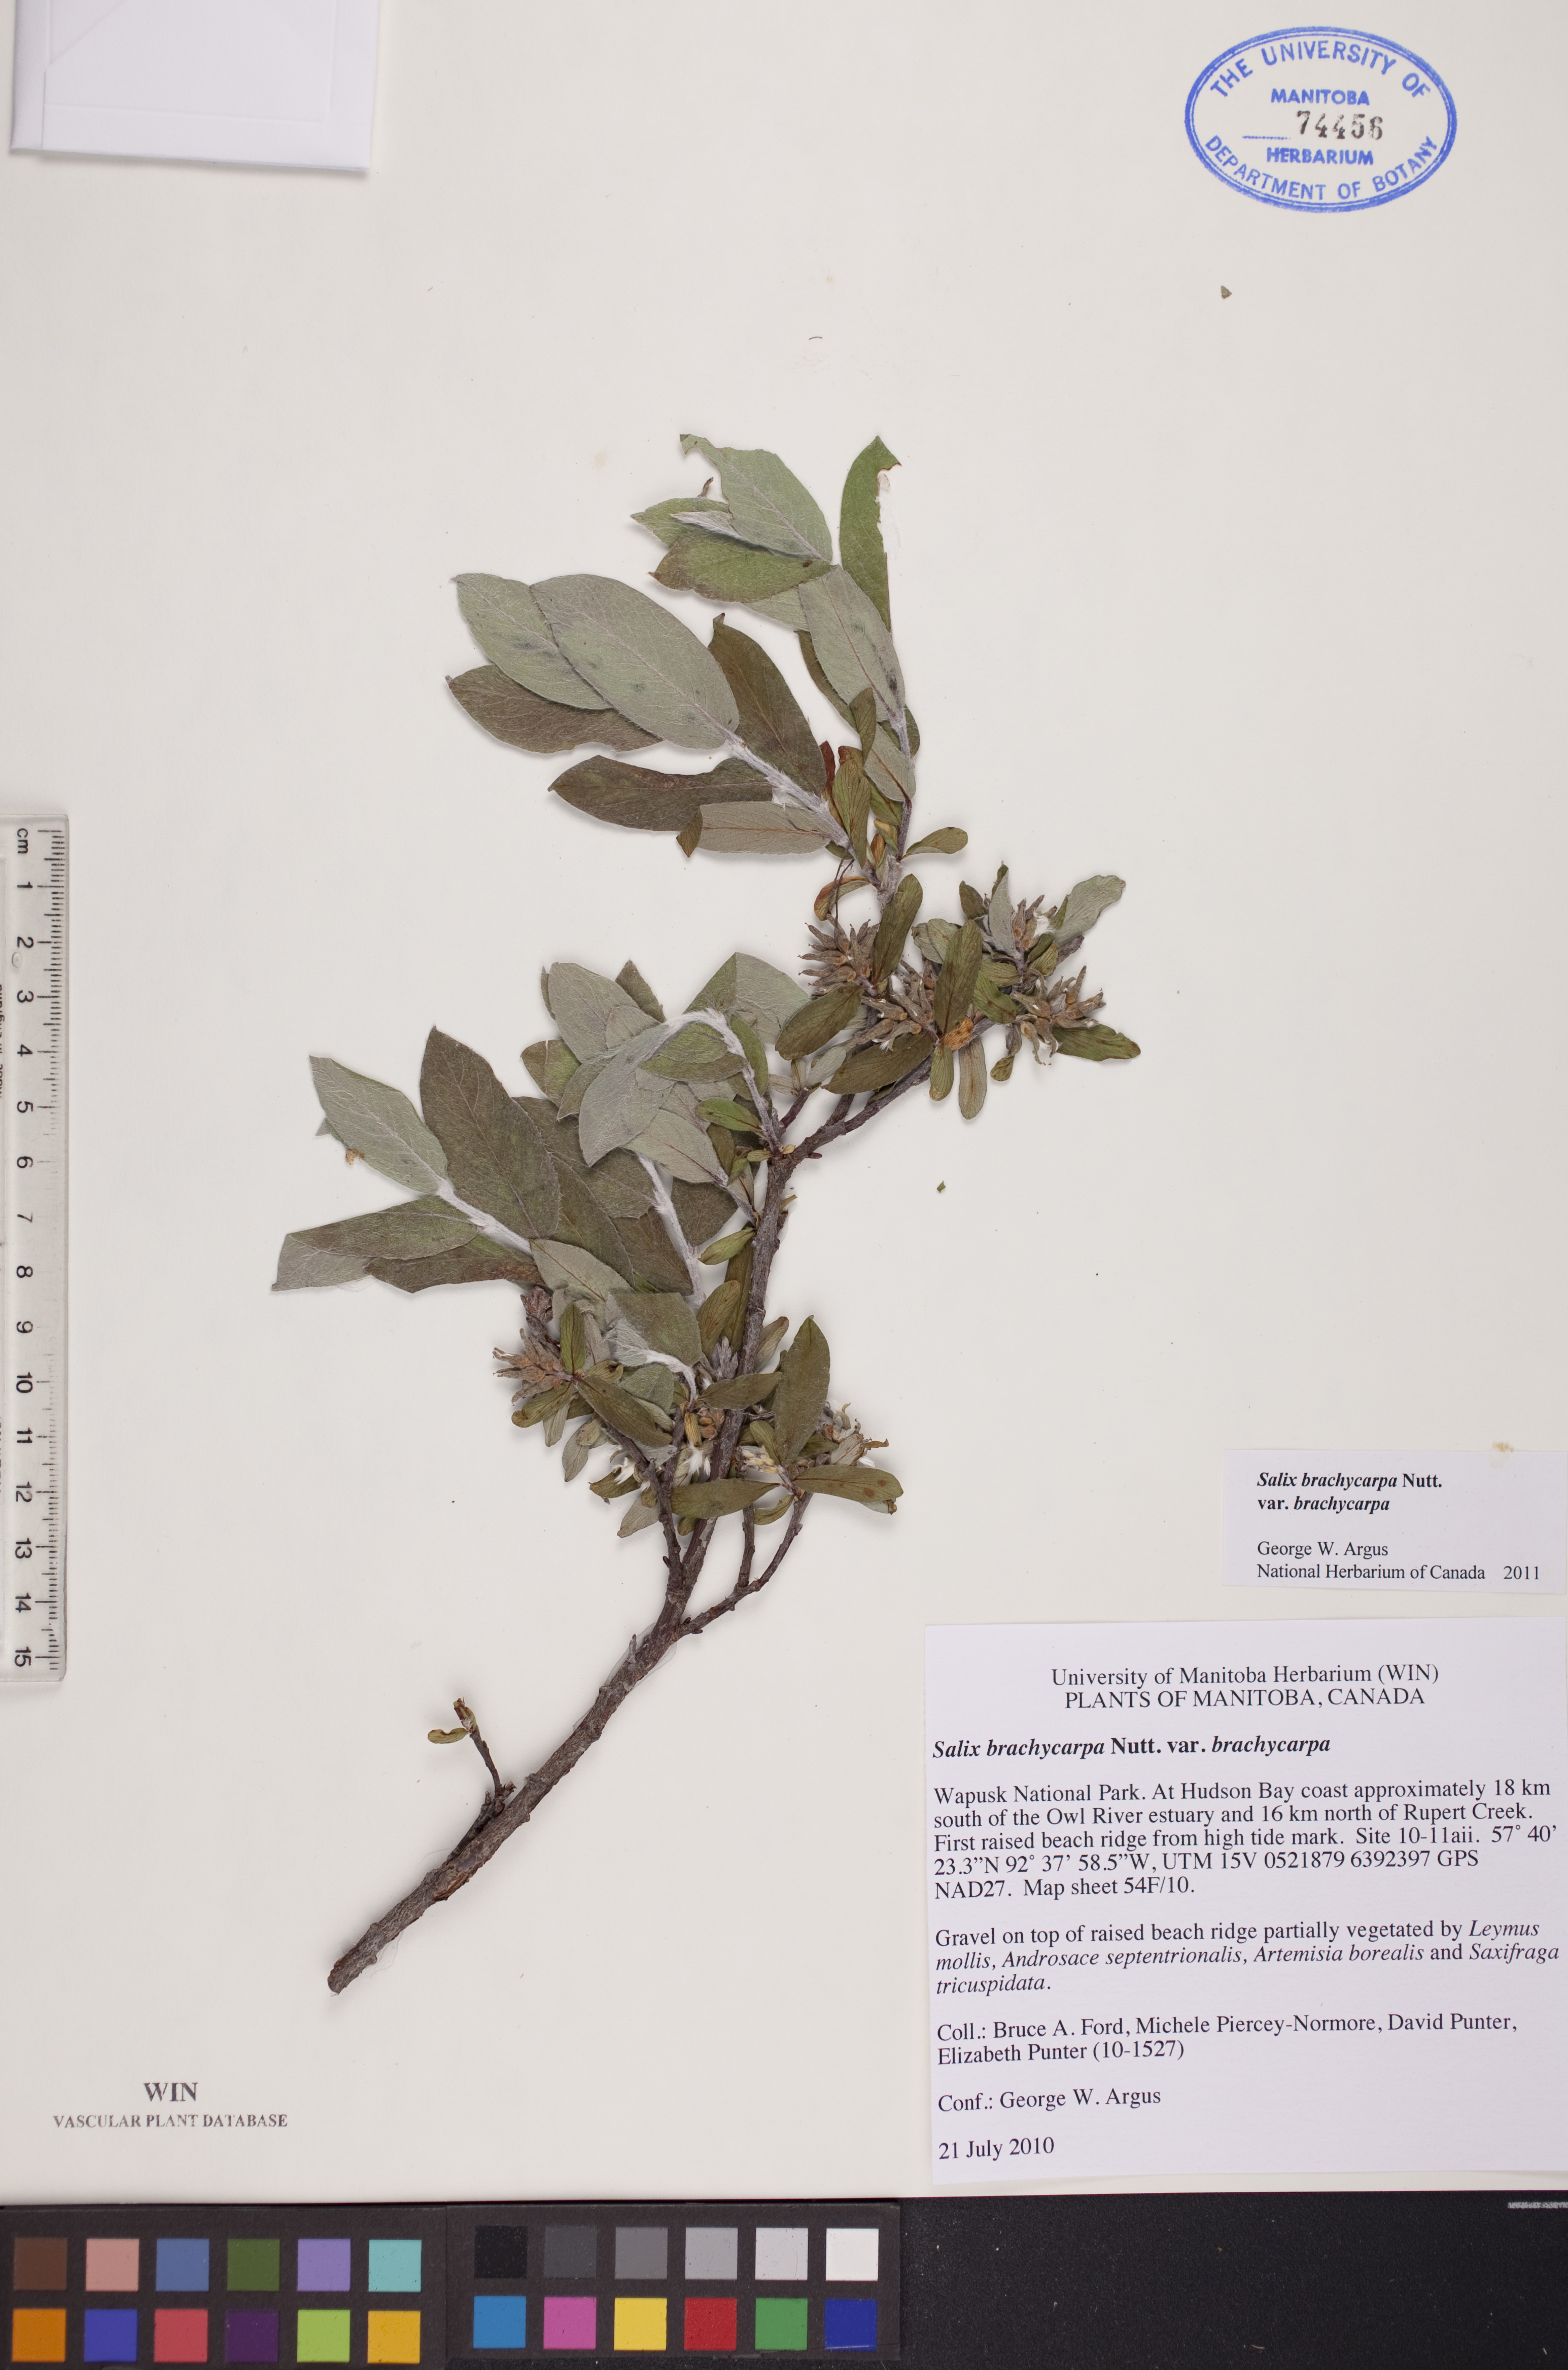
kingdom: Plantae
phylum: Tracheophyta
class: Magnoliopsida
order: Malpighiales
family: Salicaceae
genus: Salix
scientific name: Salix brachycarpa
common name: Barren-ground willow
